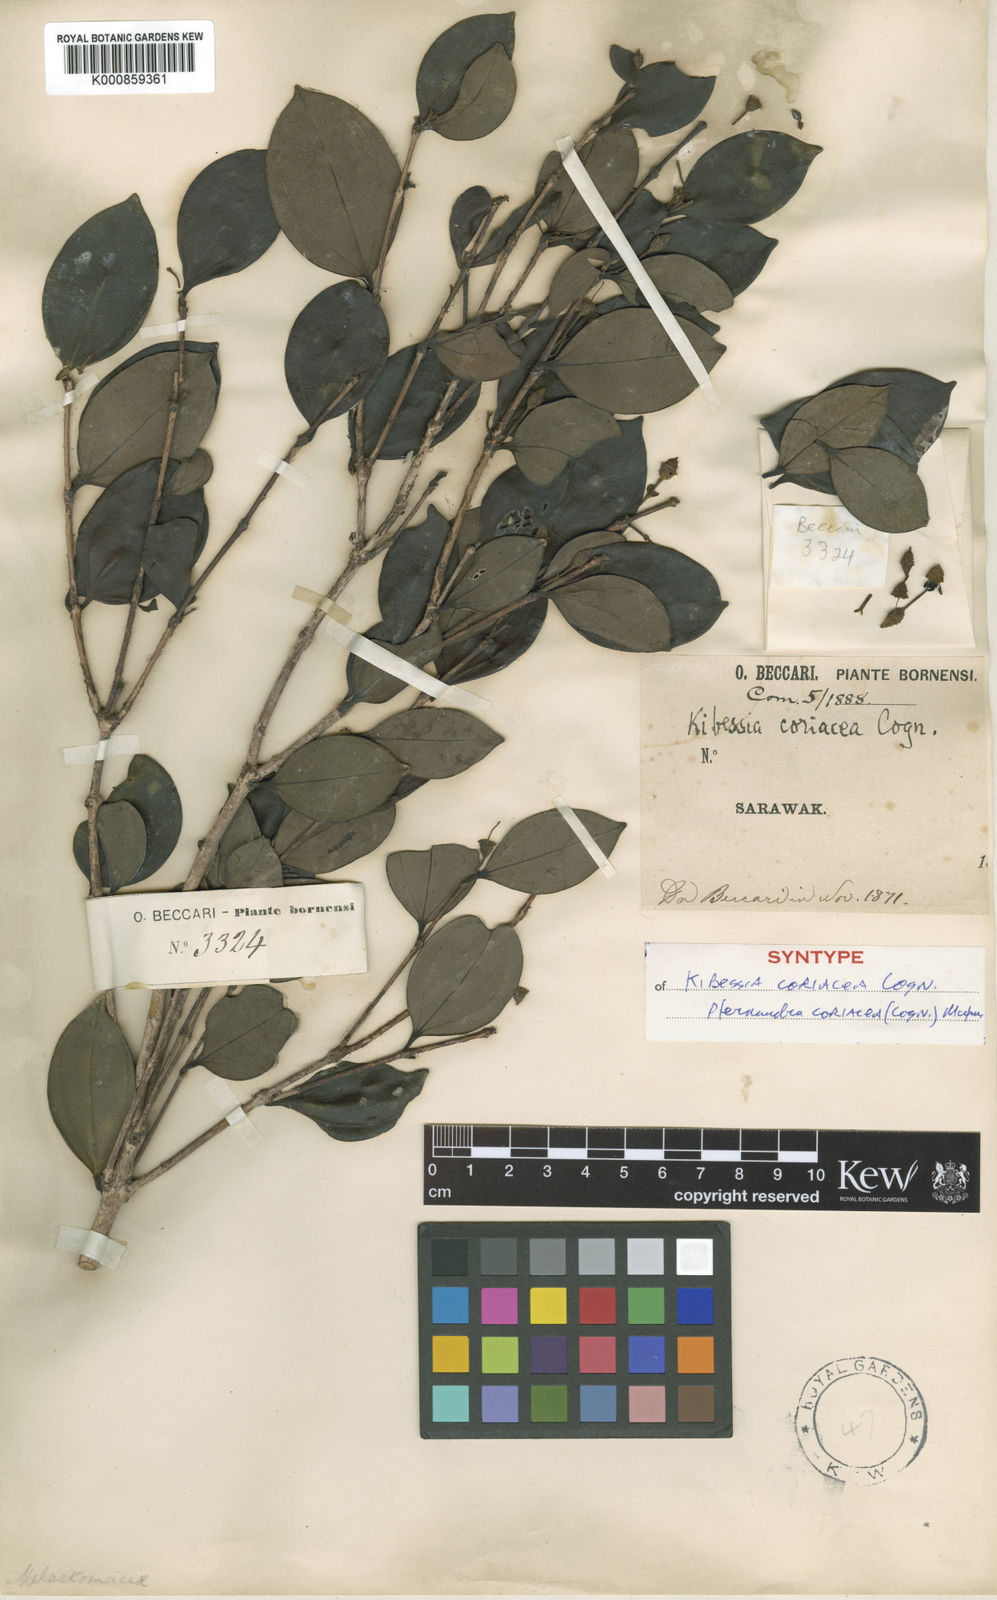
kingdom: Plantae
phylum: Tracheophyta
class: Magnoliopsida
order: Myrtales
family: Melastomataceae
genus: Pternandra
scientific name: Pternandra
